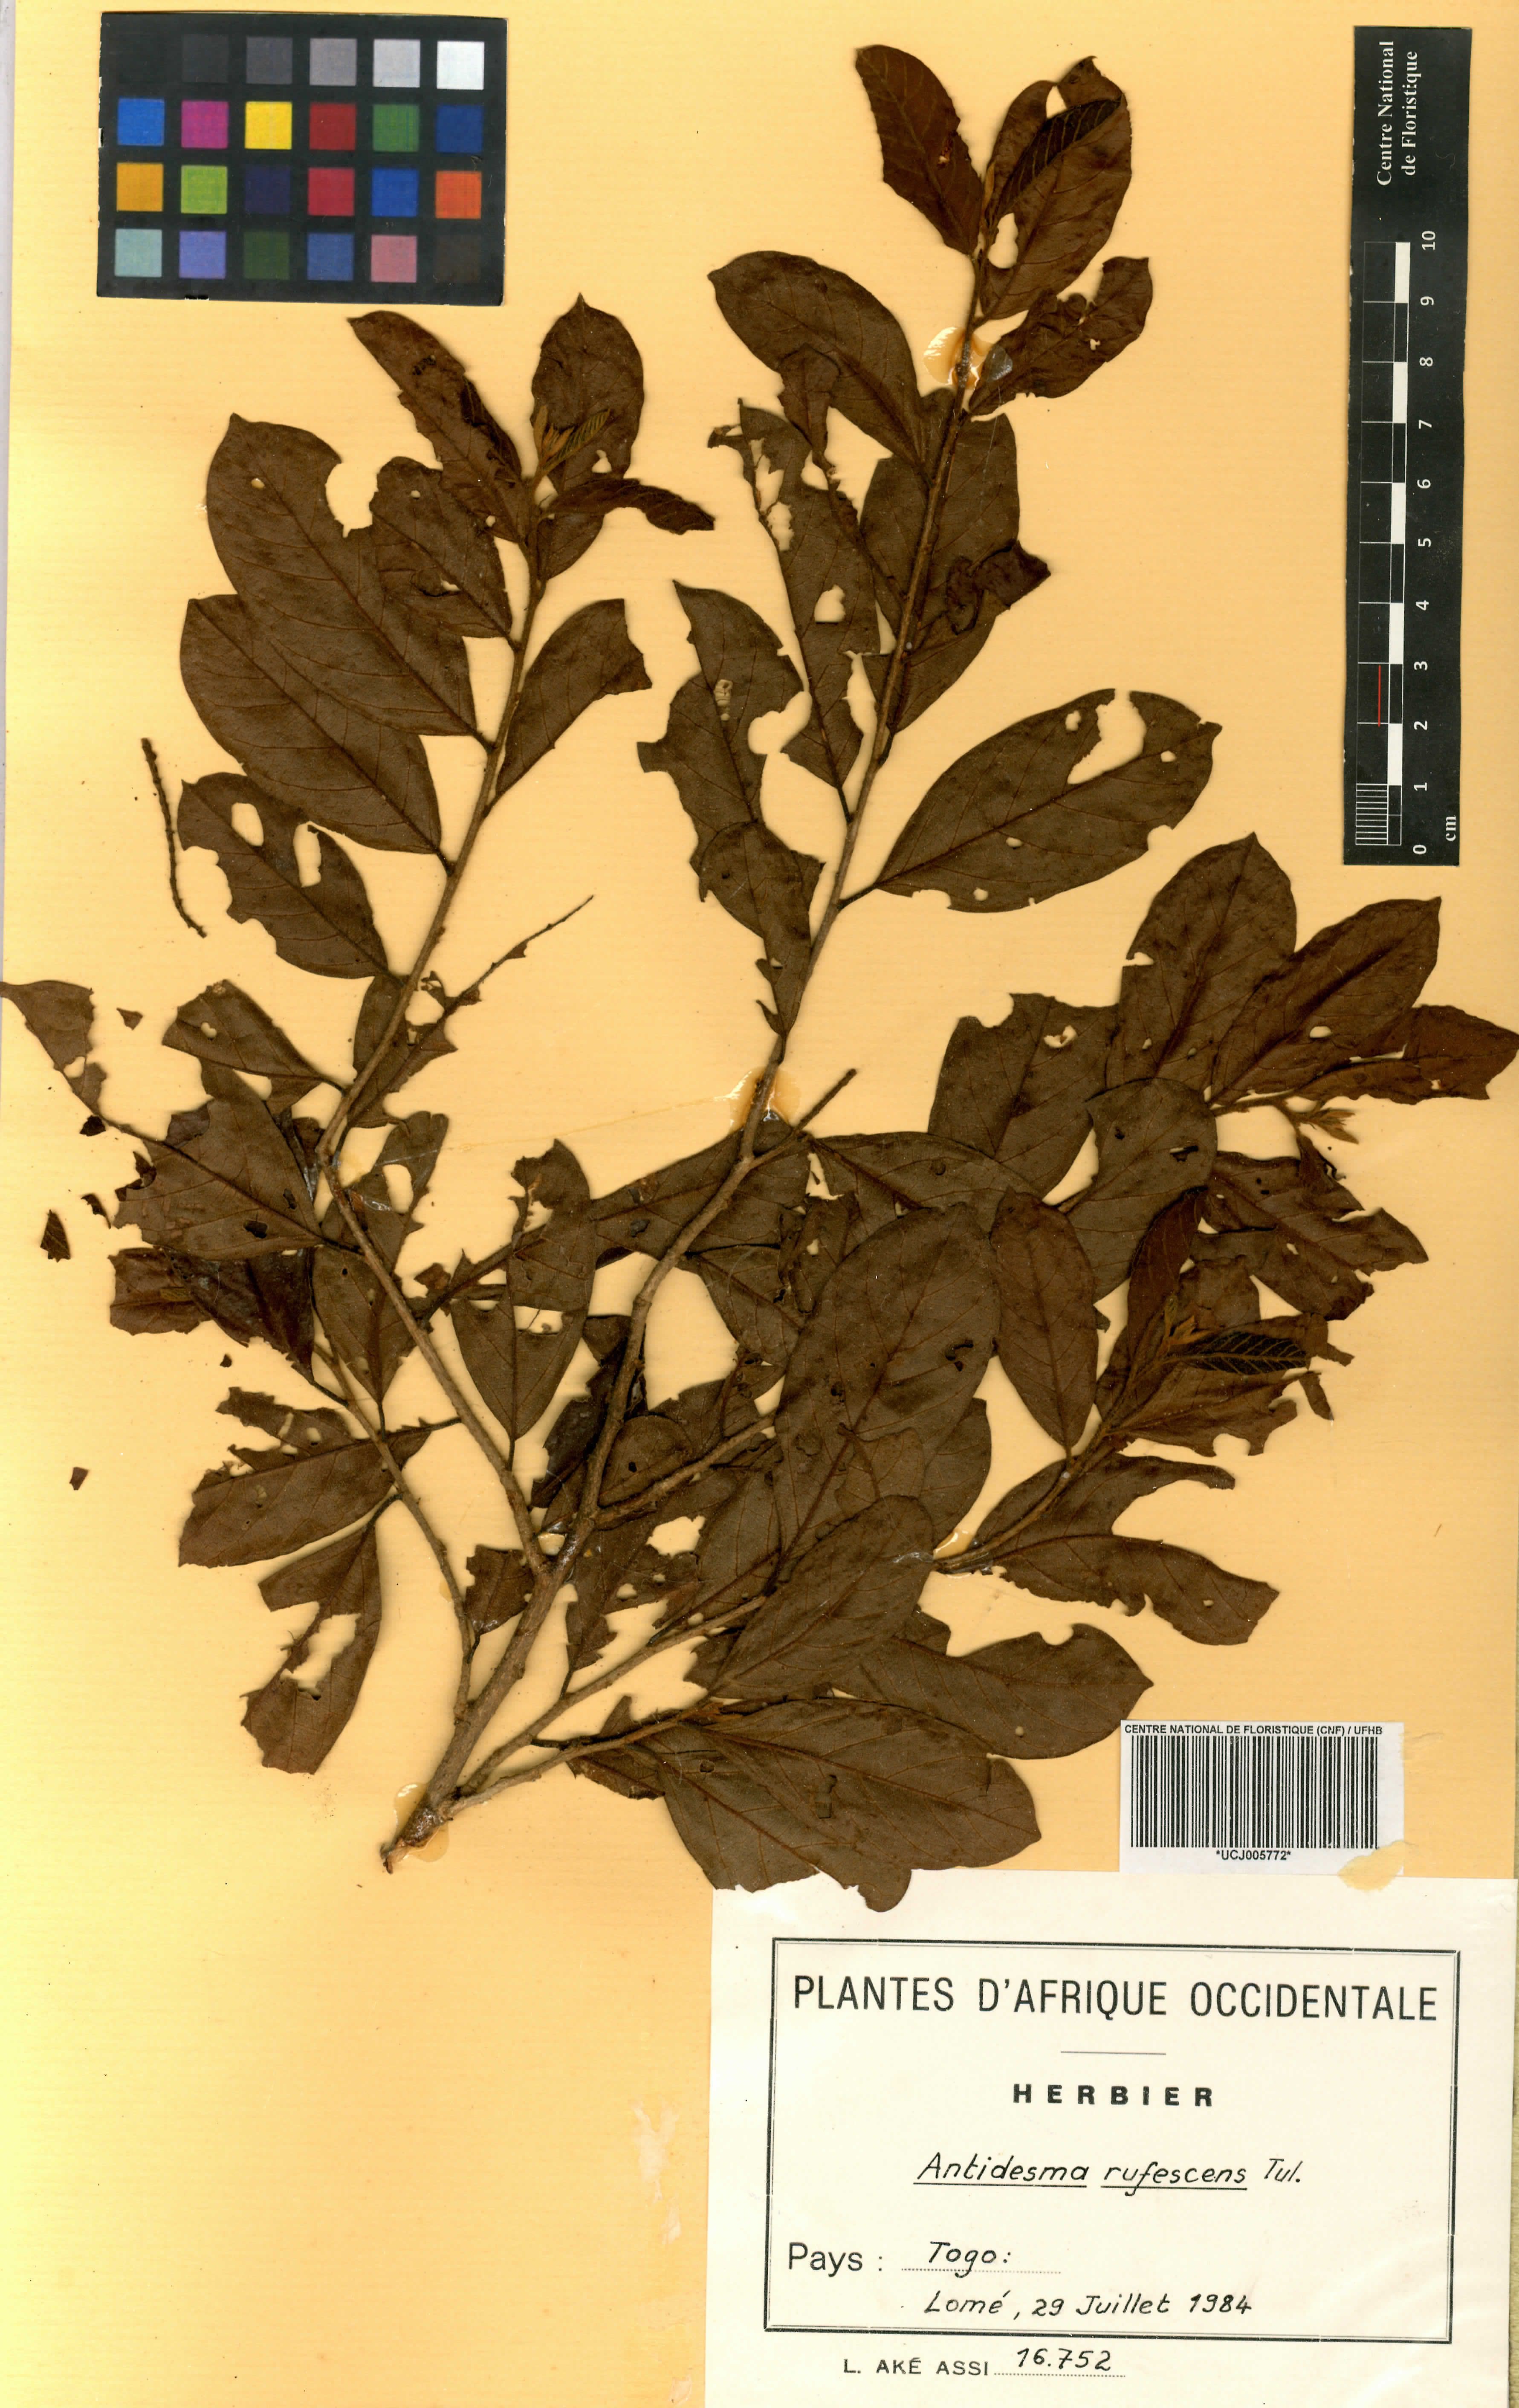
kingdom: Plantae
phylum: Tracheophyta
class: Magnoliopsida
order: Malpighiales
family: Phyllanthaceae
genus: Antidesma
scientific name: Antidesma rufescens
